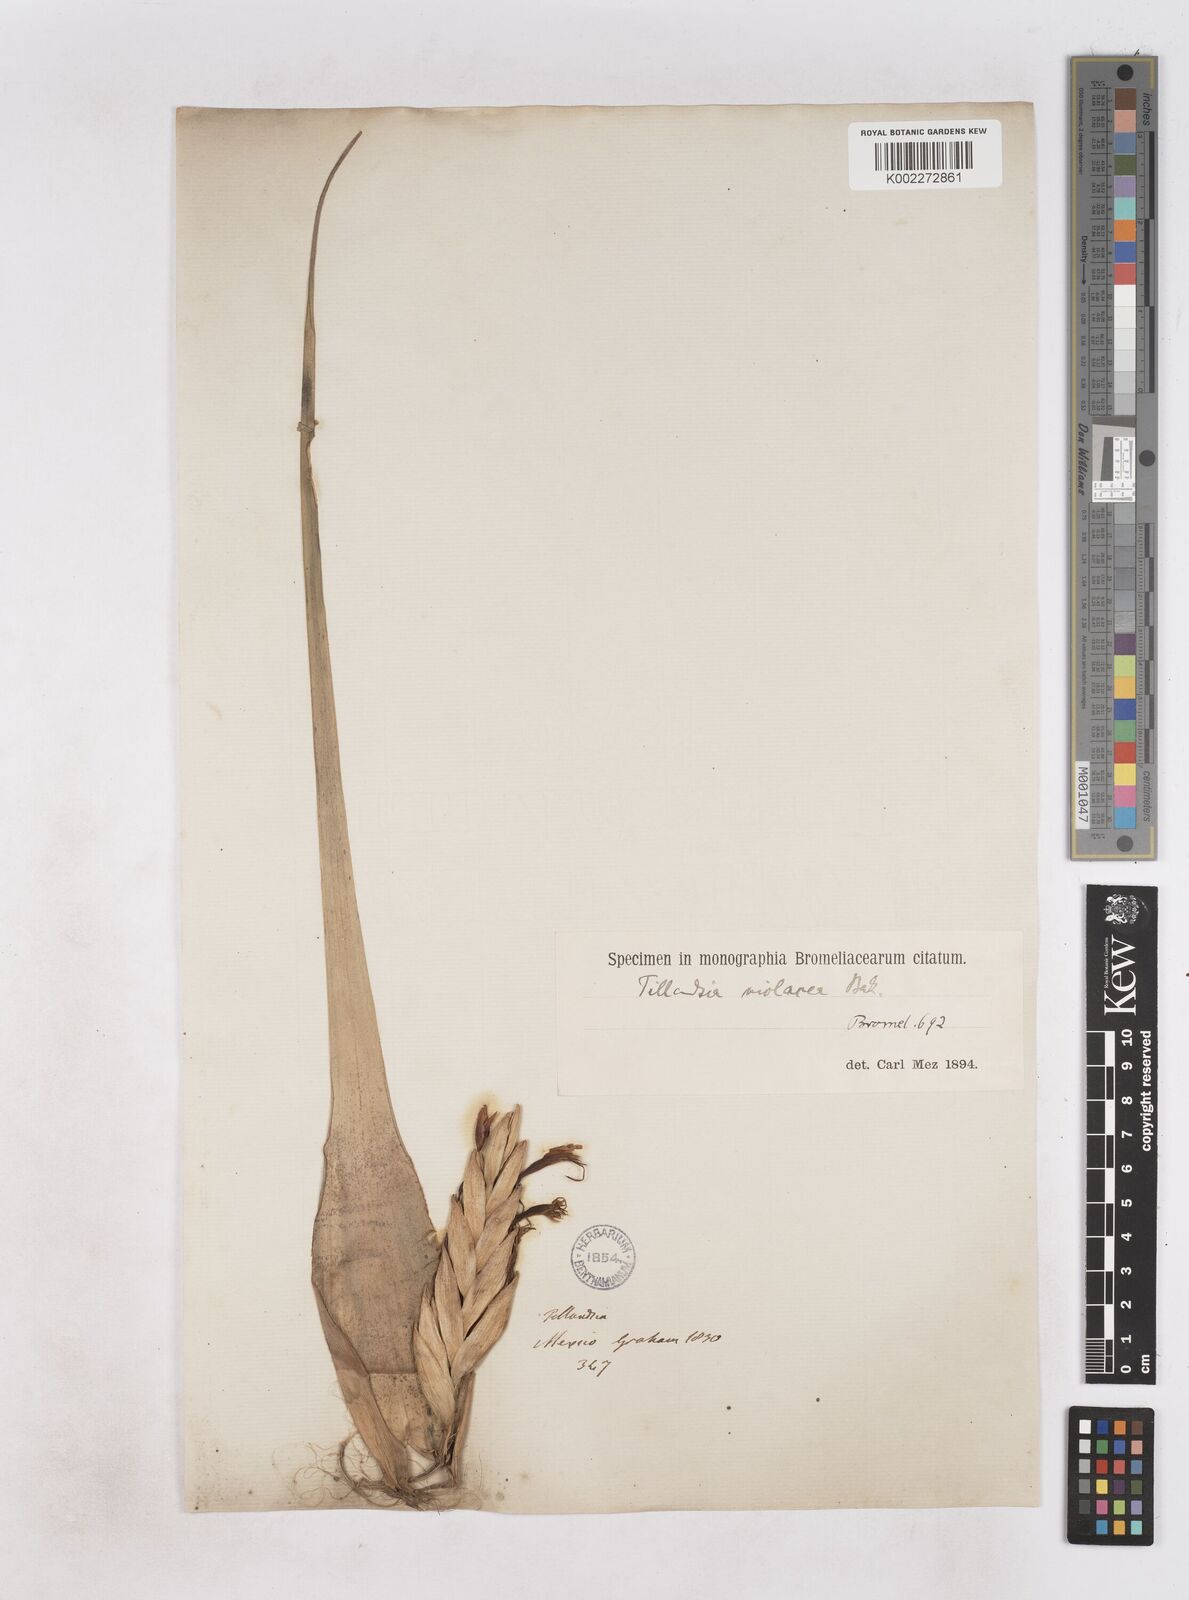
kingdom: Plantae
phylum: Tracheophyta
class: Liliopsida
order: Poales
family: Bromeliaceae
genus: Tillandsia
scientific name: Tillandsia violacea
